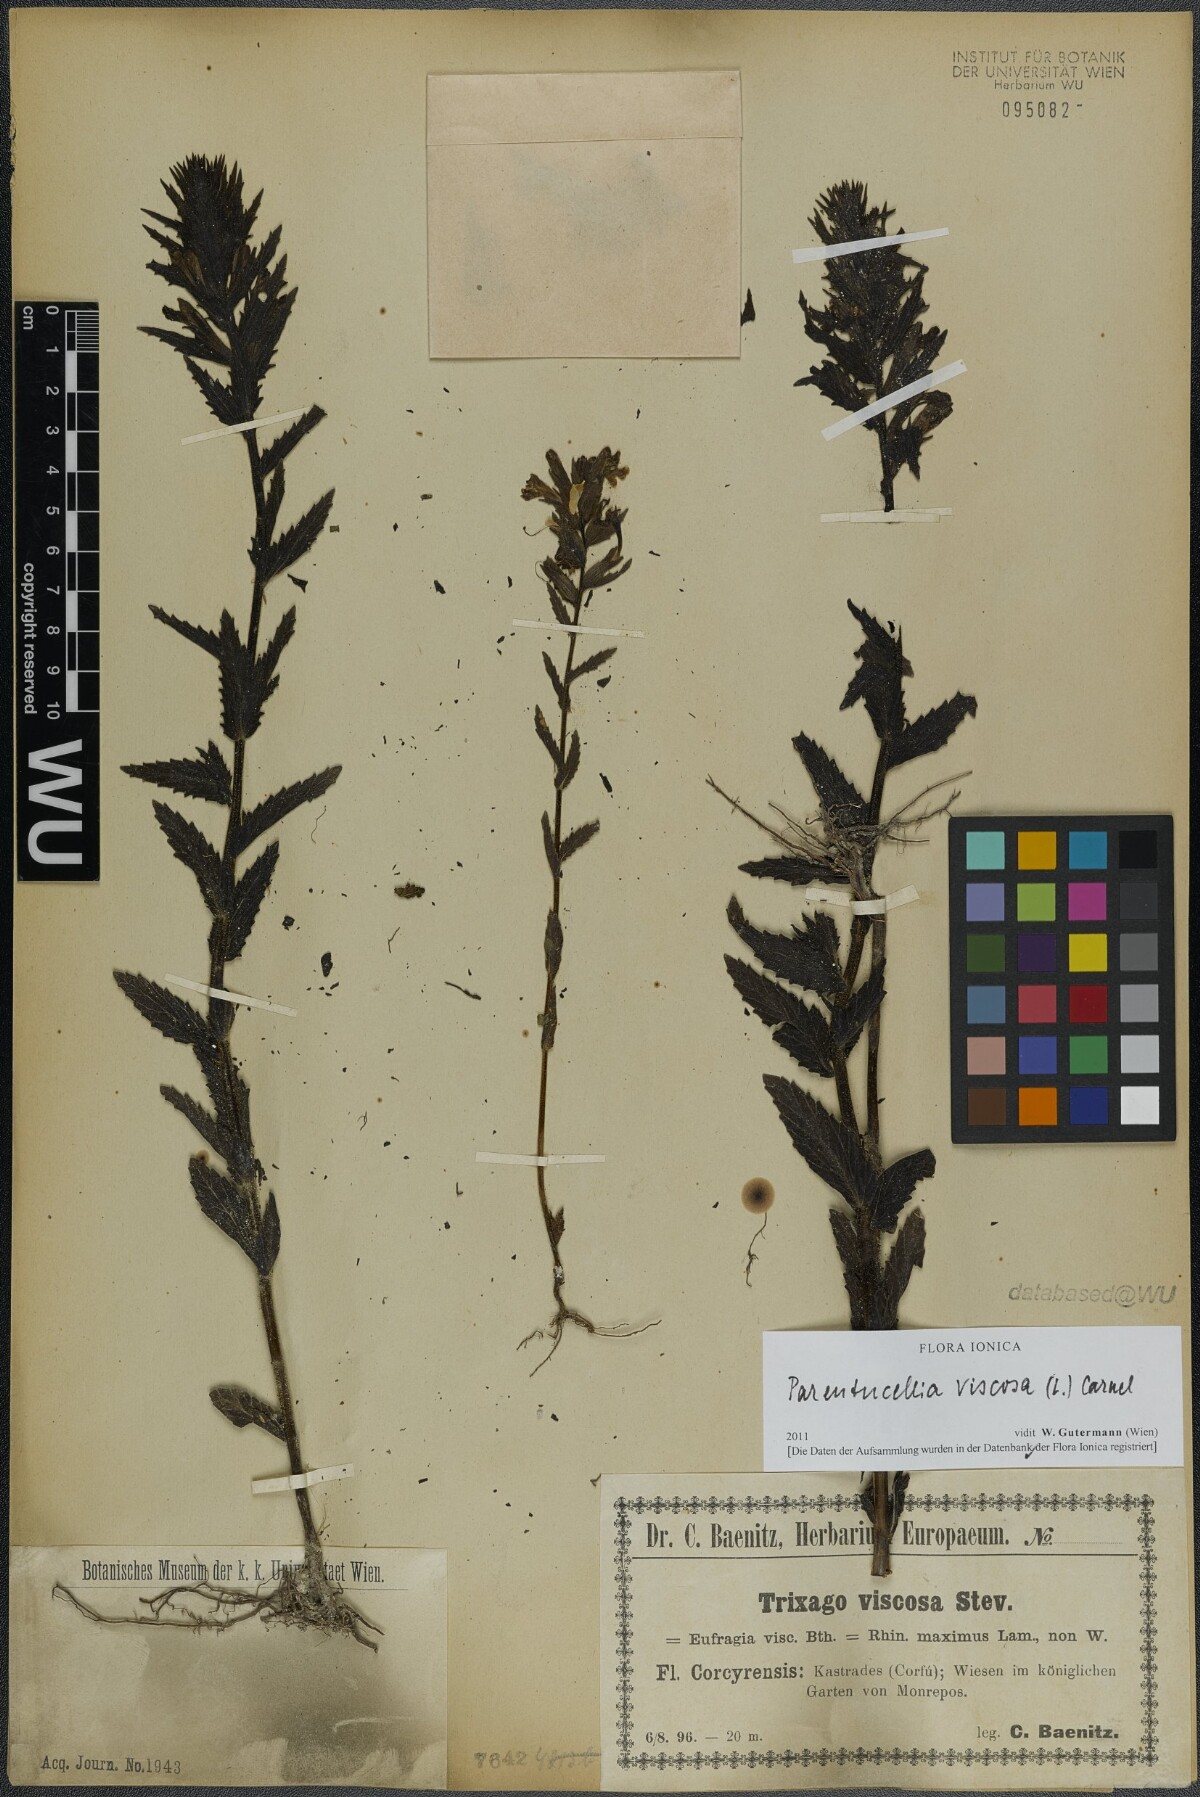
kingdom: Plantae
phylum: Tracheophyta
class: Magnoliopsida
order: Lamiales
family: Orobanchaceae
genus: Bellardia
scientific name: Bellardia viscosa
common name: Sticky parentucellia
